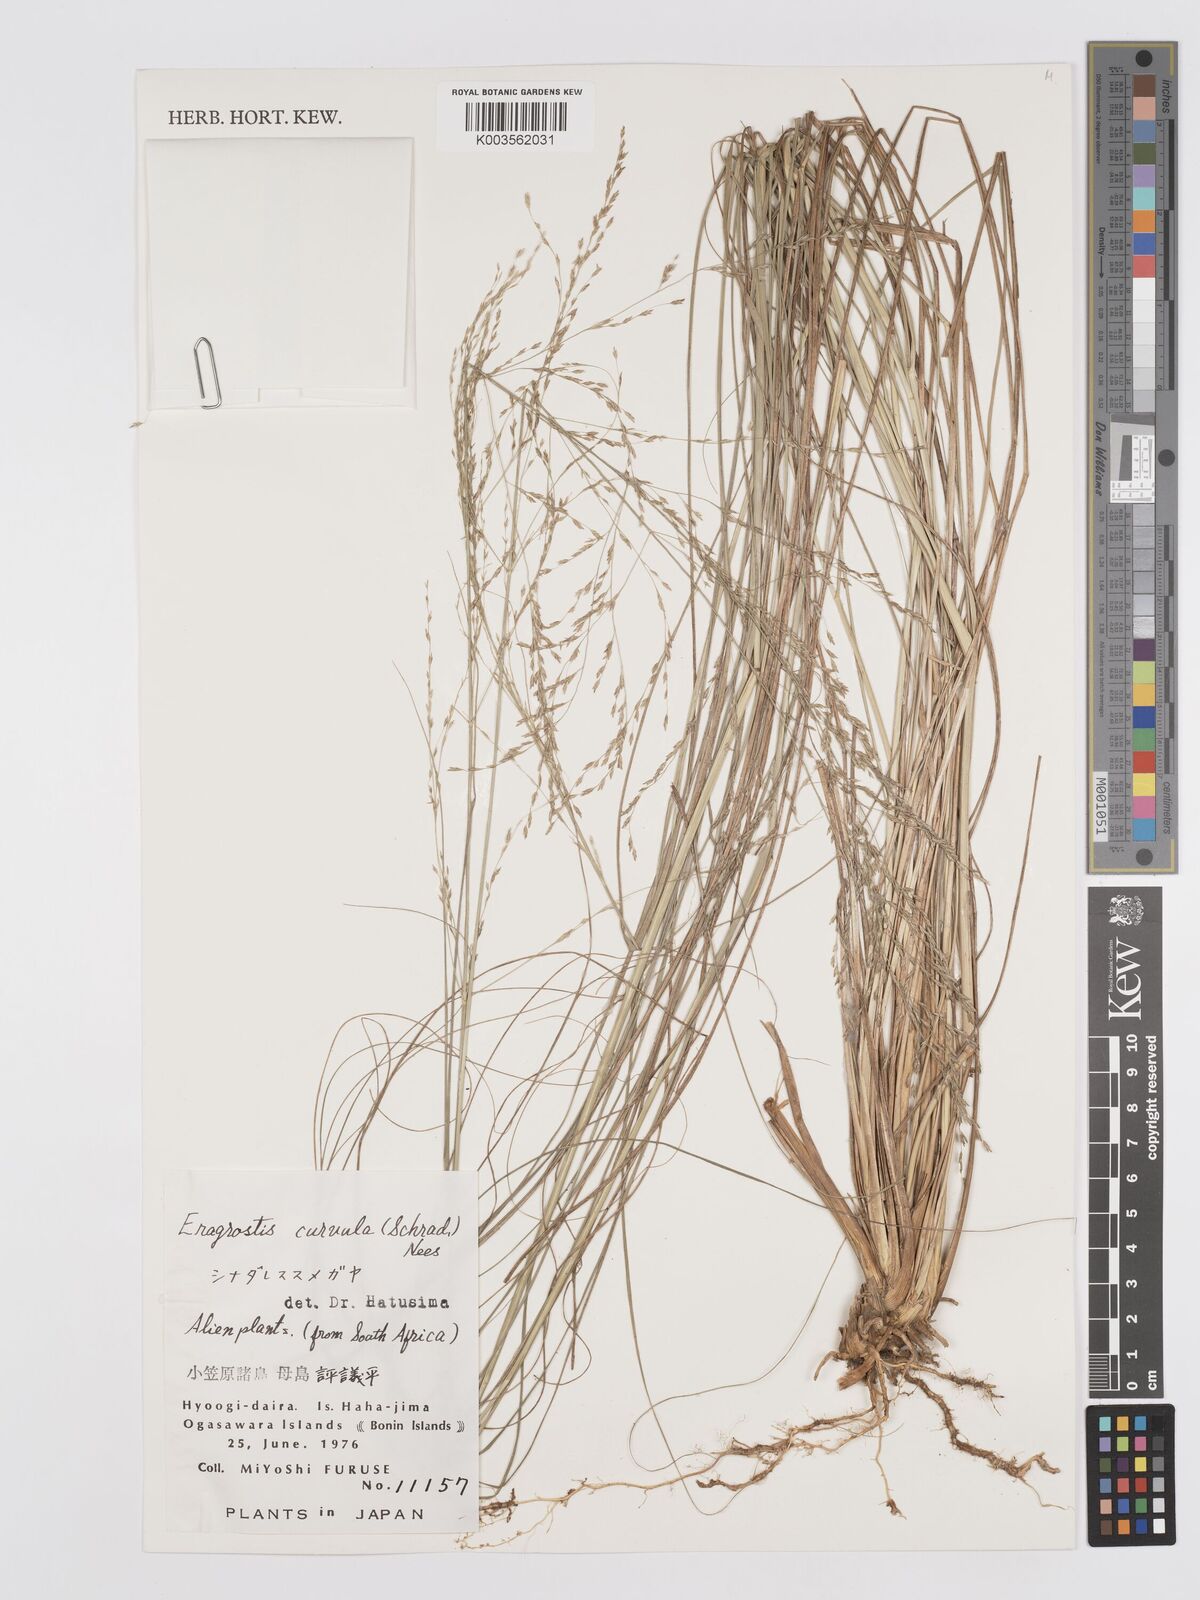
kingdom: Plantae
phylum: Tracheophyta
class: Liliopsida
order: Poales
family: Poaceae
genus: Eragrostis
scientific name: Eragrostis curvula
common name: African love-grass
